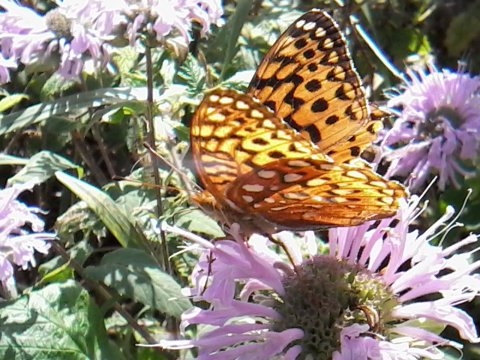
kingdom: Animalia
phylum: Arthropoda
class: Insecta
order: Lepidoptera
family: Nymphalidae
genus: Speyeria
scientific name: Speyeria aphrodite
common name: Aphrodite Fritillary
